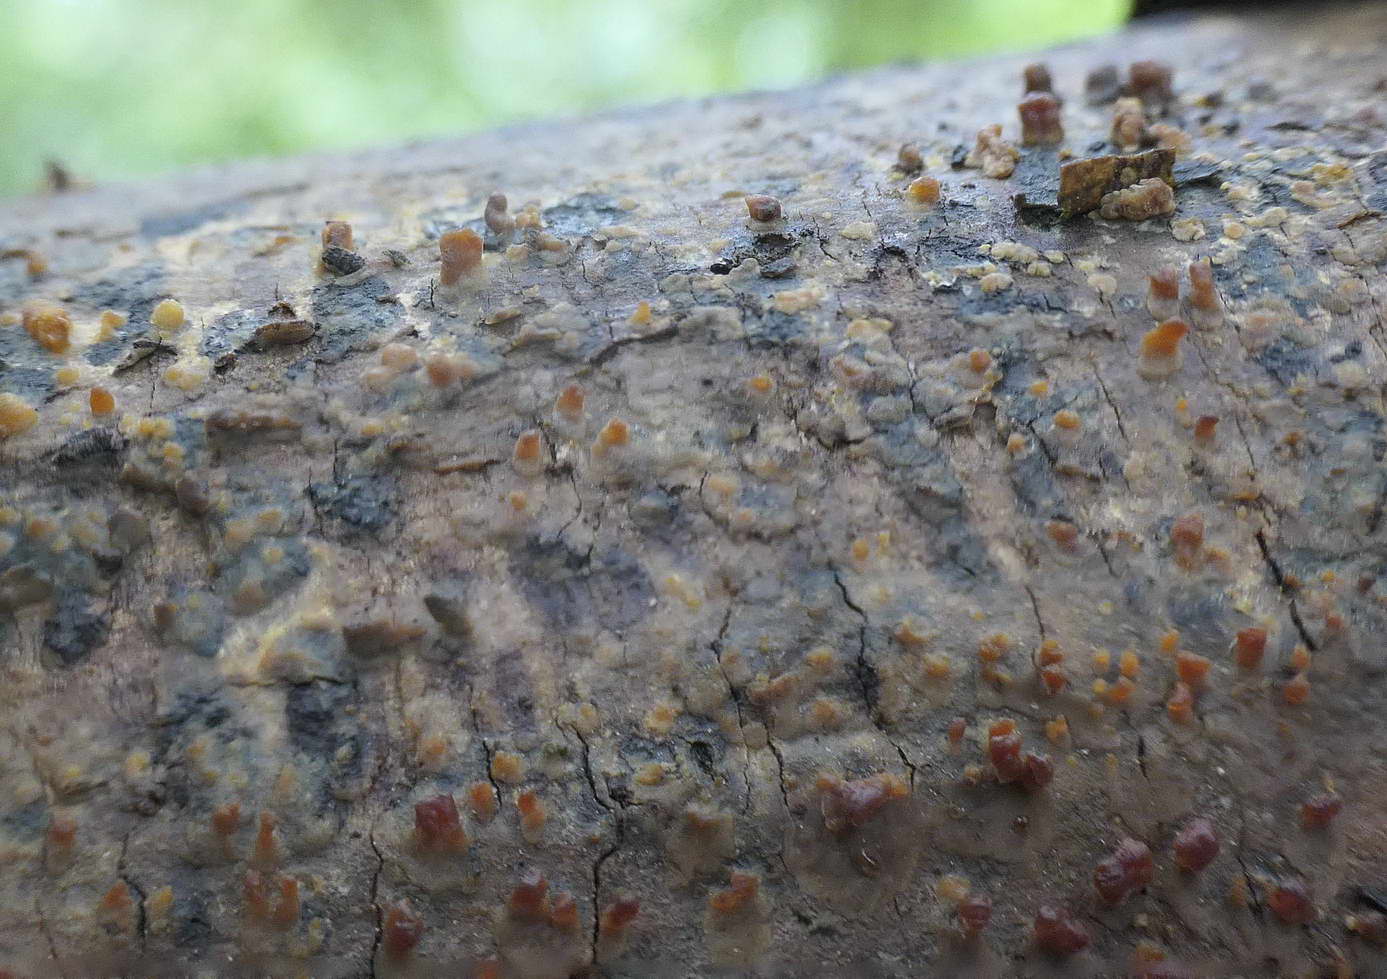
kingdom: Fungi
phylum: Basidiomycota
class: Agaricomycetes
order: Russulales
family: Peniophoraceae
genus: Peniophora
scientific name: Peniophora laeta
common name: tandet voksskind
